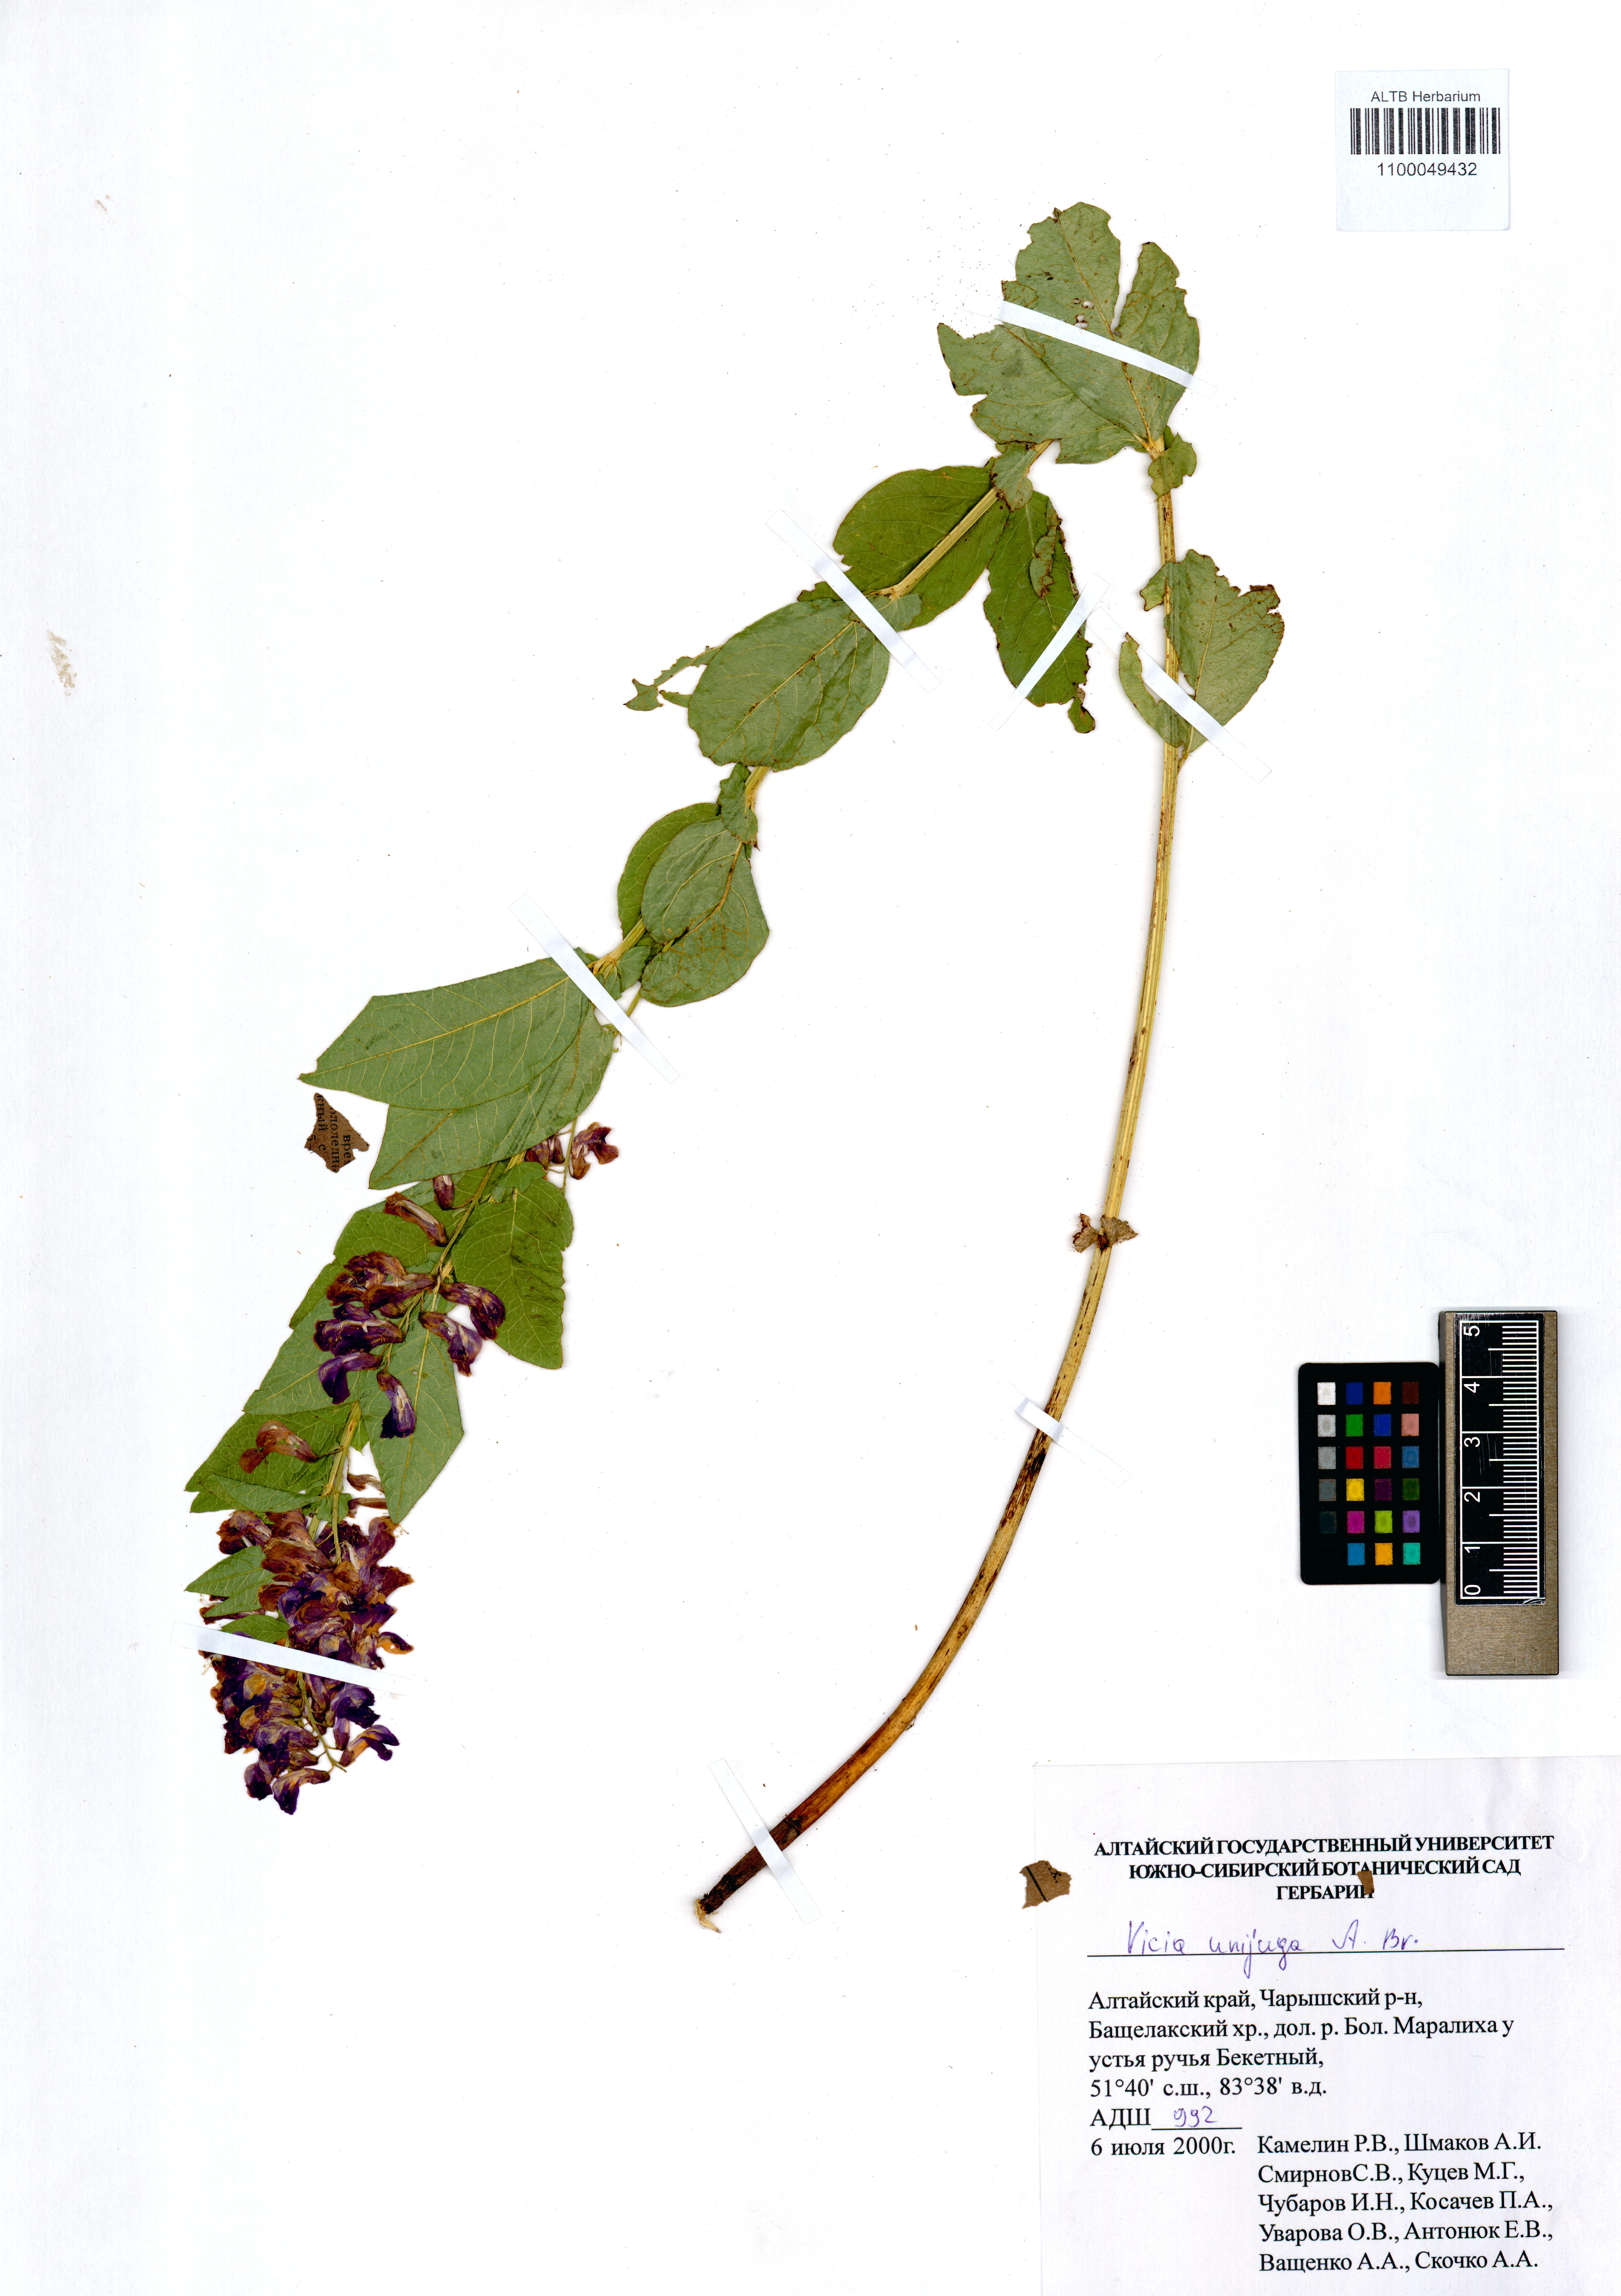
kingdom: Plantae
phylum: Tracheophyta
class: Magnoliopsida
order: Fabales
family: Fabaceae
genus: Vicia
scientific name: Vicia unijuga
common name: Two-leaf vetch
